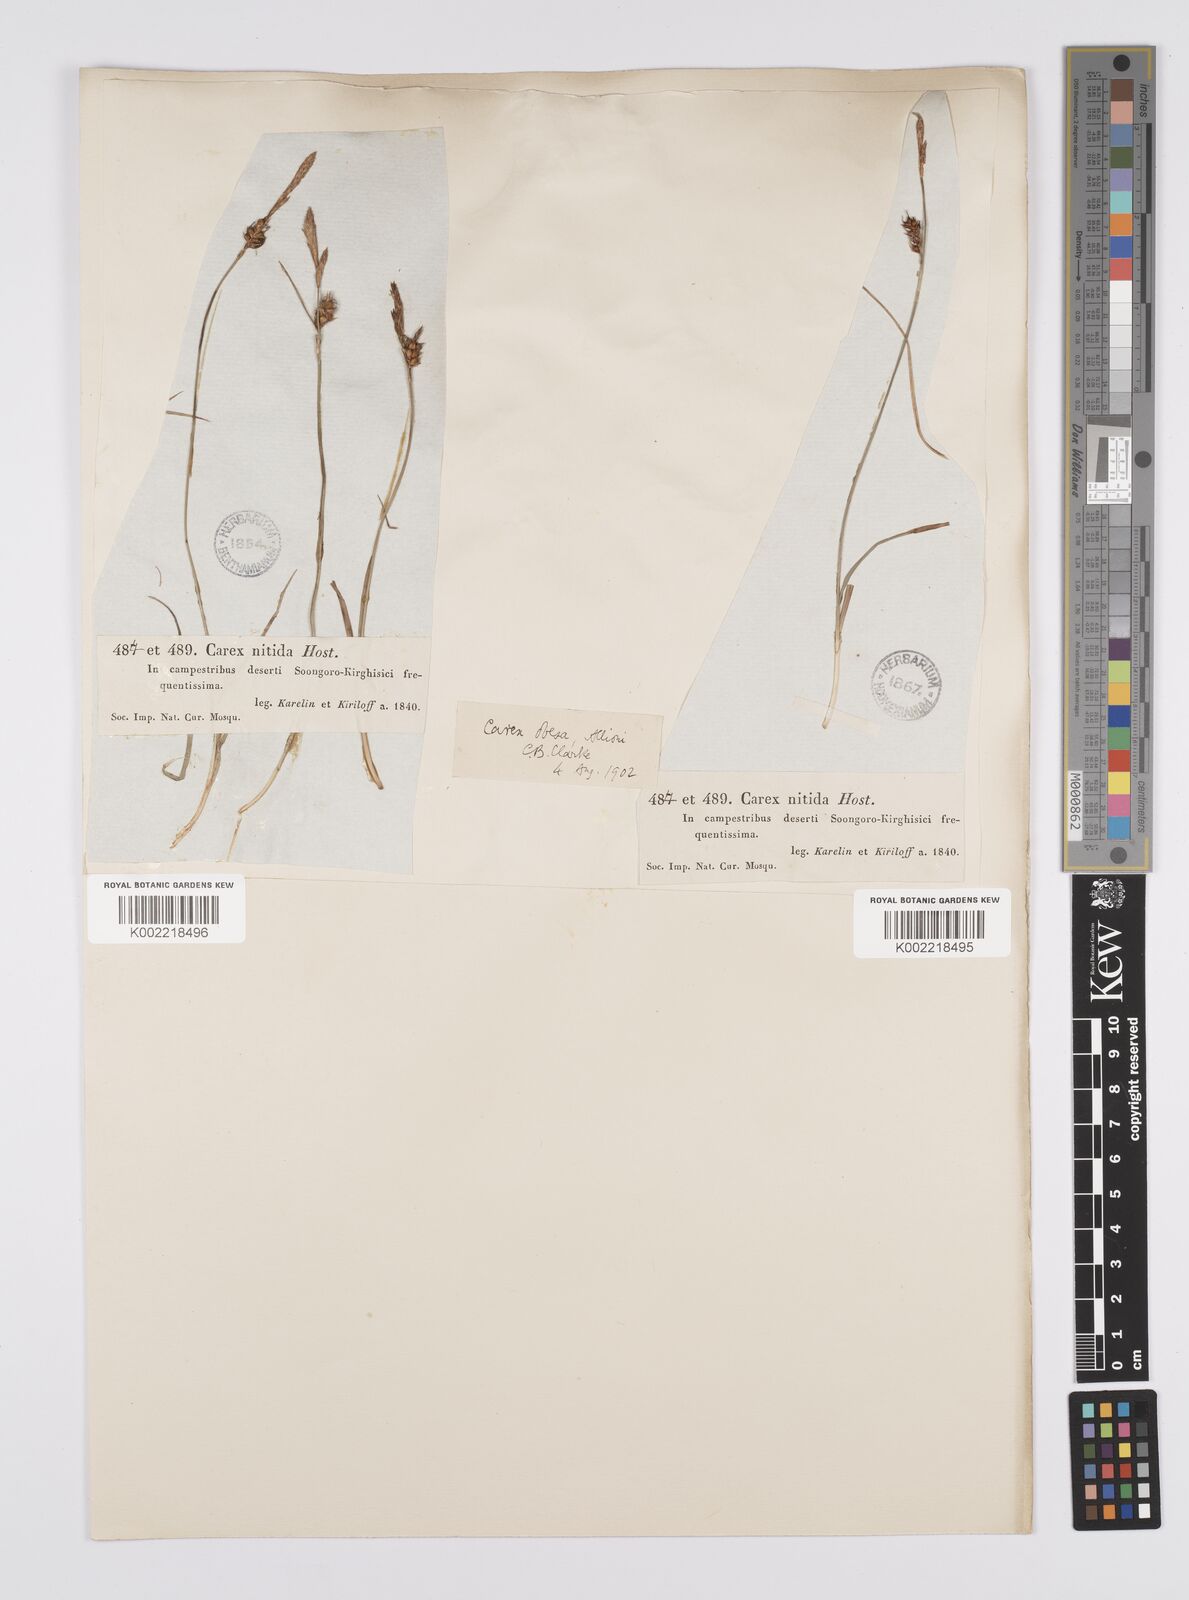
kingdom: Plantae
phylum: Tracheophyta
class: Liliopsida
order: Poales
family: Cyperaceae
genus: Carex
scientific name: Carex liparocarpos
